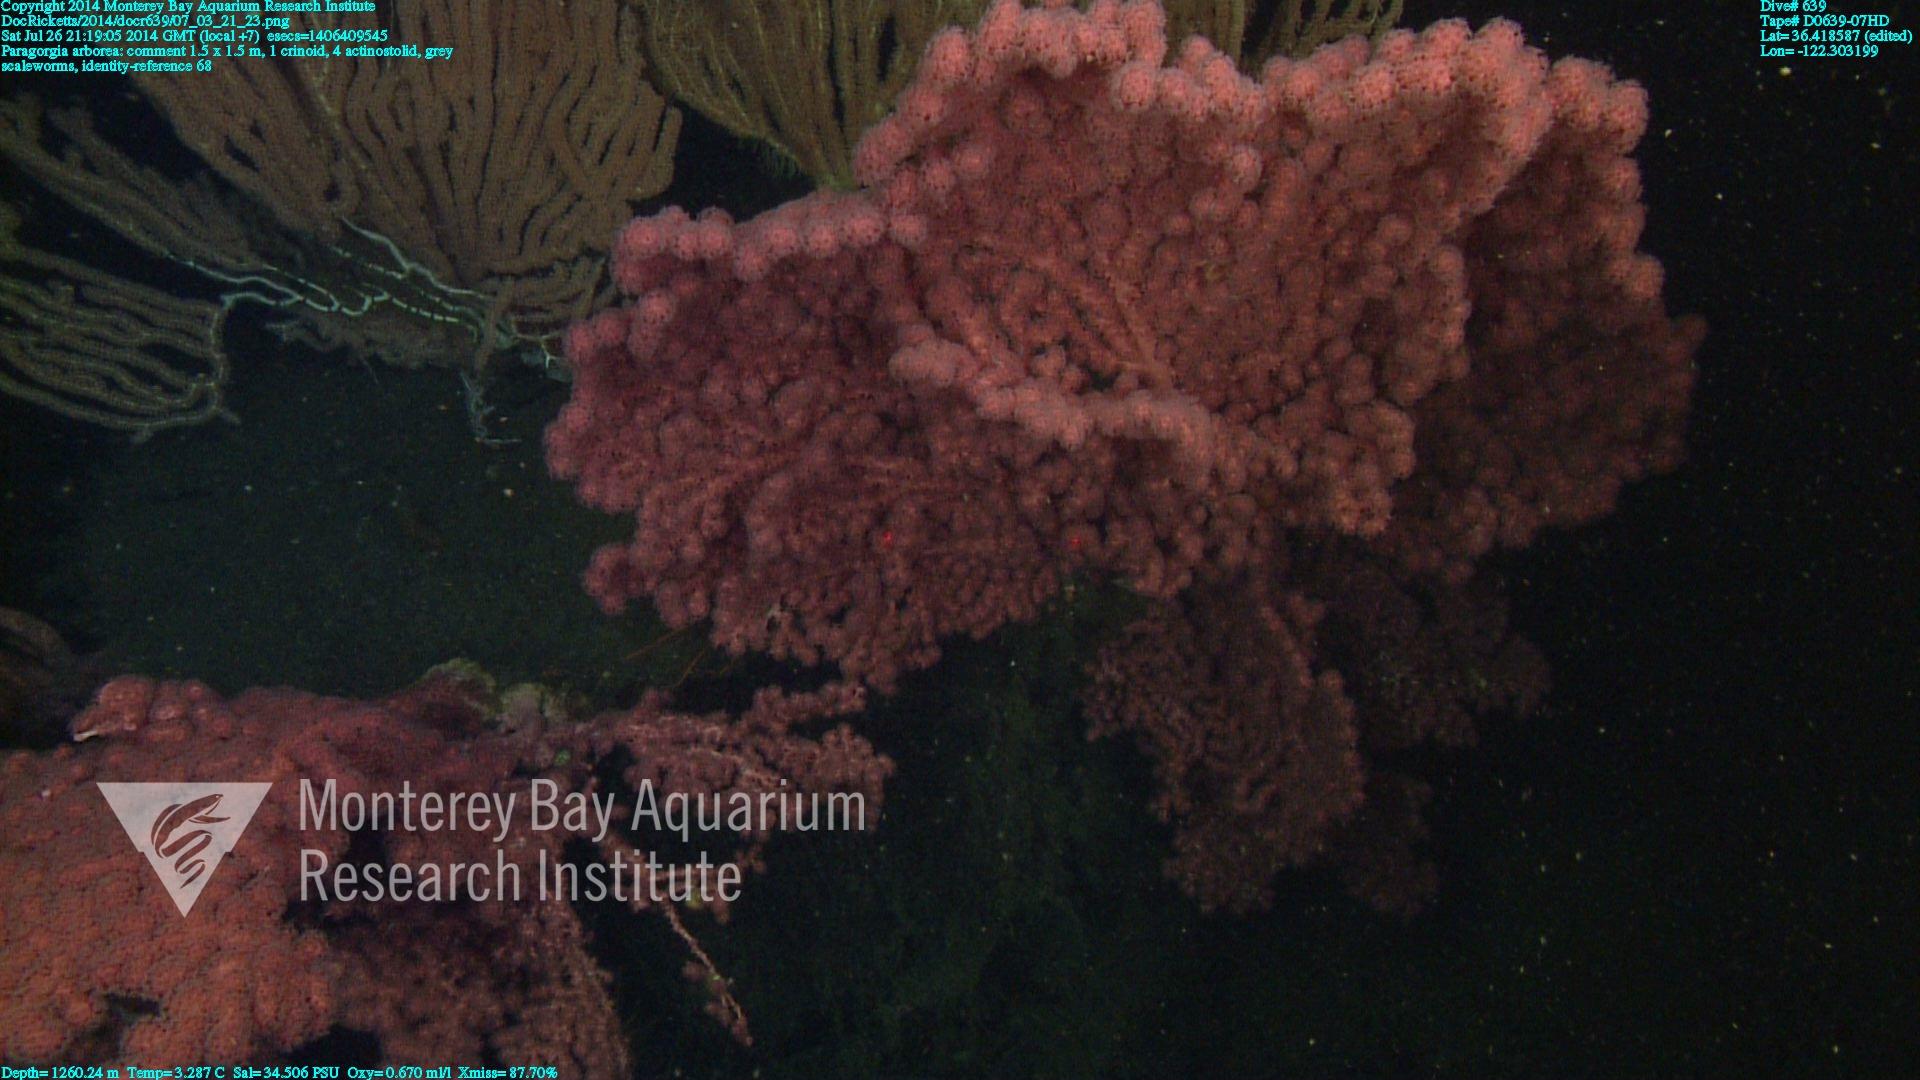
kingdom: Animalia
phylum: Cnidaria
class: Anthozoa
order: Scleralcyonacea
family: Coralliidae
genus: Paragorgia
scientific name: Paragorgia arborea
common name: Bubble gum coral
